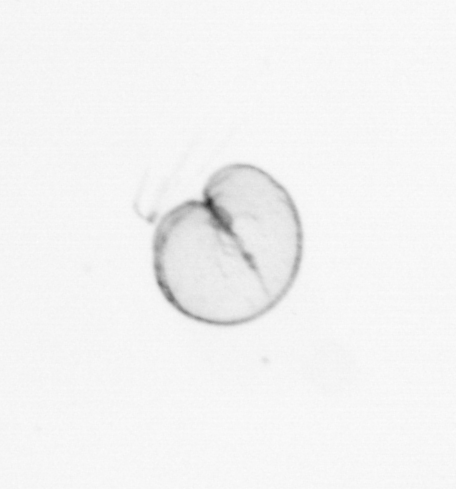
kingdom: Chromista
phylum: Myzozoa
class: Dinophyceae
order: Noctilucales
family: Noctilucaceae
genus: Noctiluca
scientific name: Noctiluca scintillans
